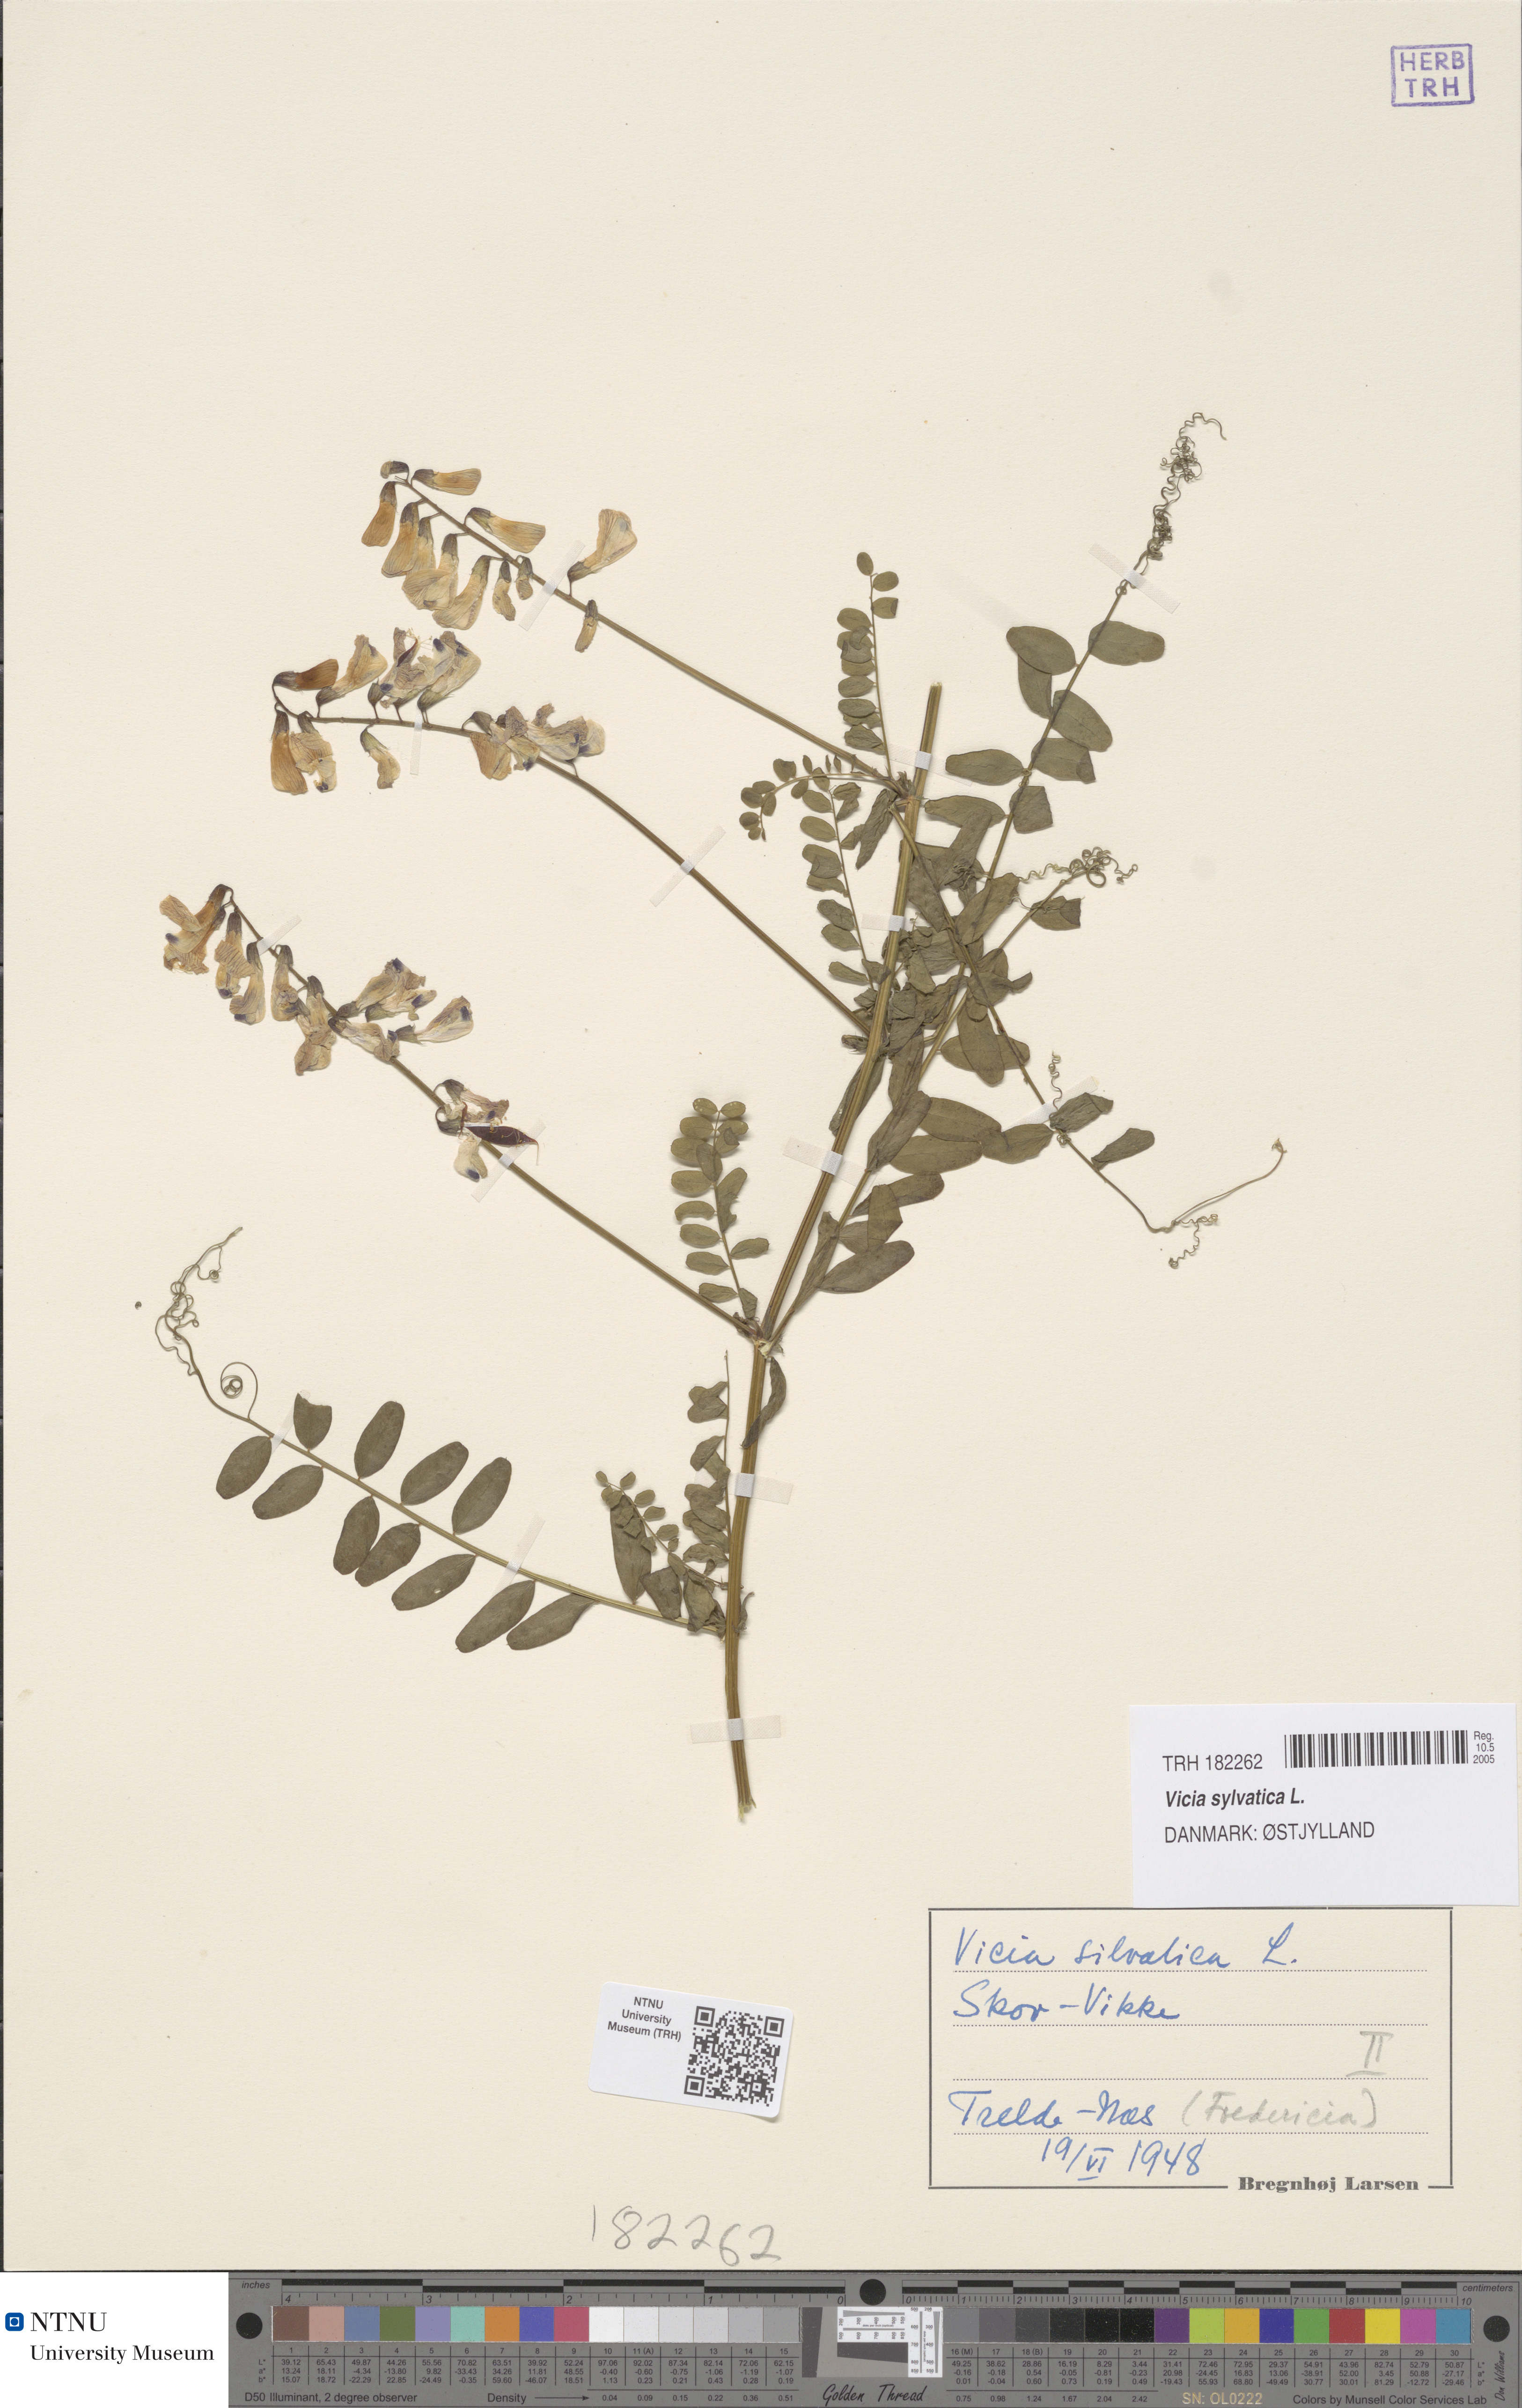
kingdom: Plantae
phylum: Tracheophyta
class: Magnoliopsida
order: Fabales
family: Fabaceae
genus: Vicia
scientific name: Vicia sylvatica
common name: Wood vetch
